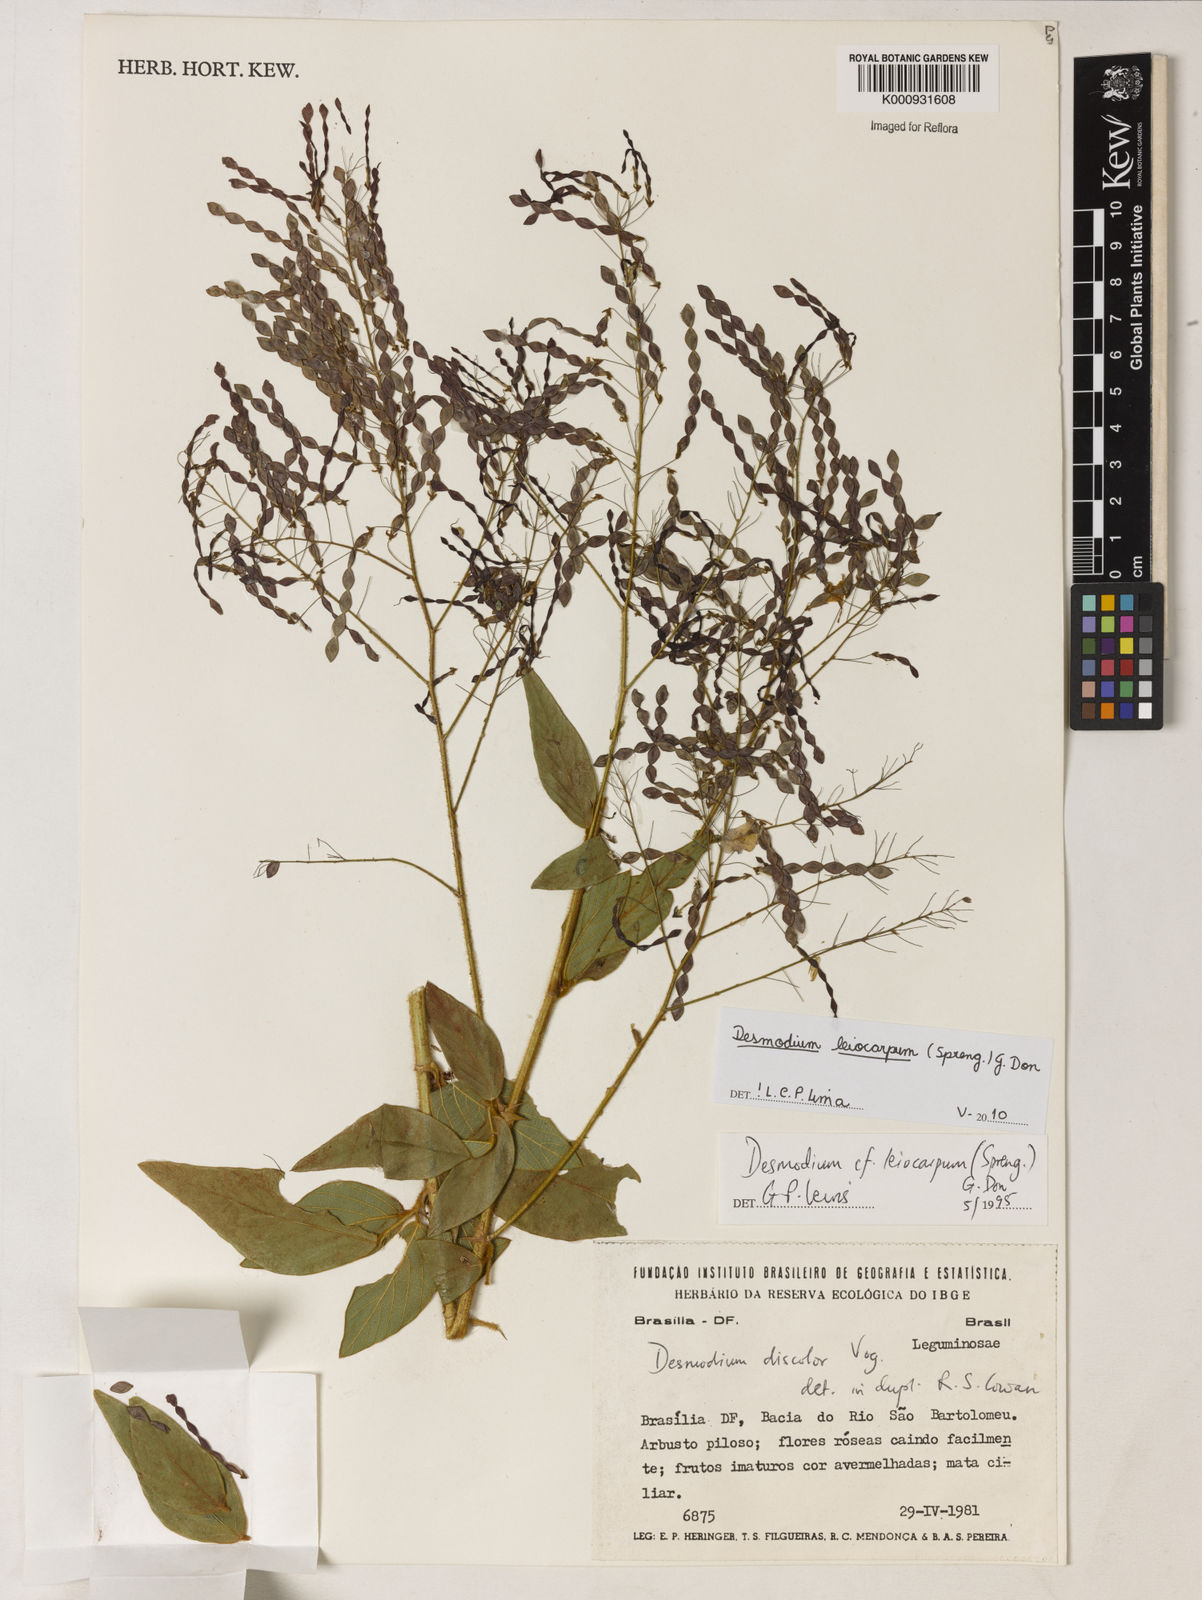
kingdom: Plantae
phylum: Tracheophyta
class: Magnoliopsida
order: Fabales
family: Fabaceae
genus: Desmodium
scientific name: Desmodium leiocarpum
